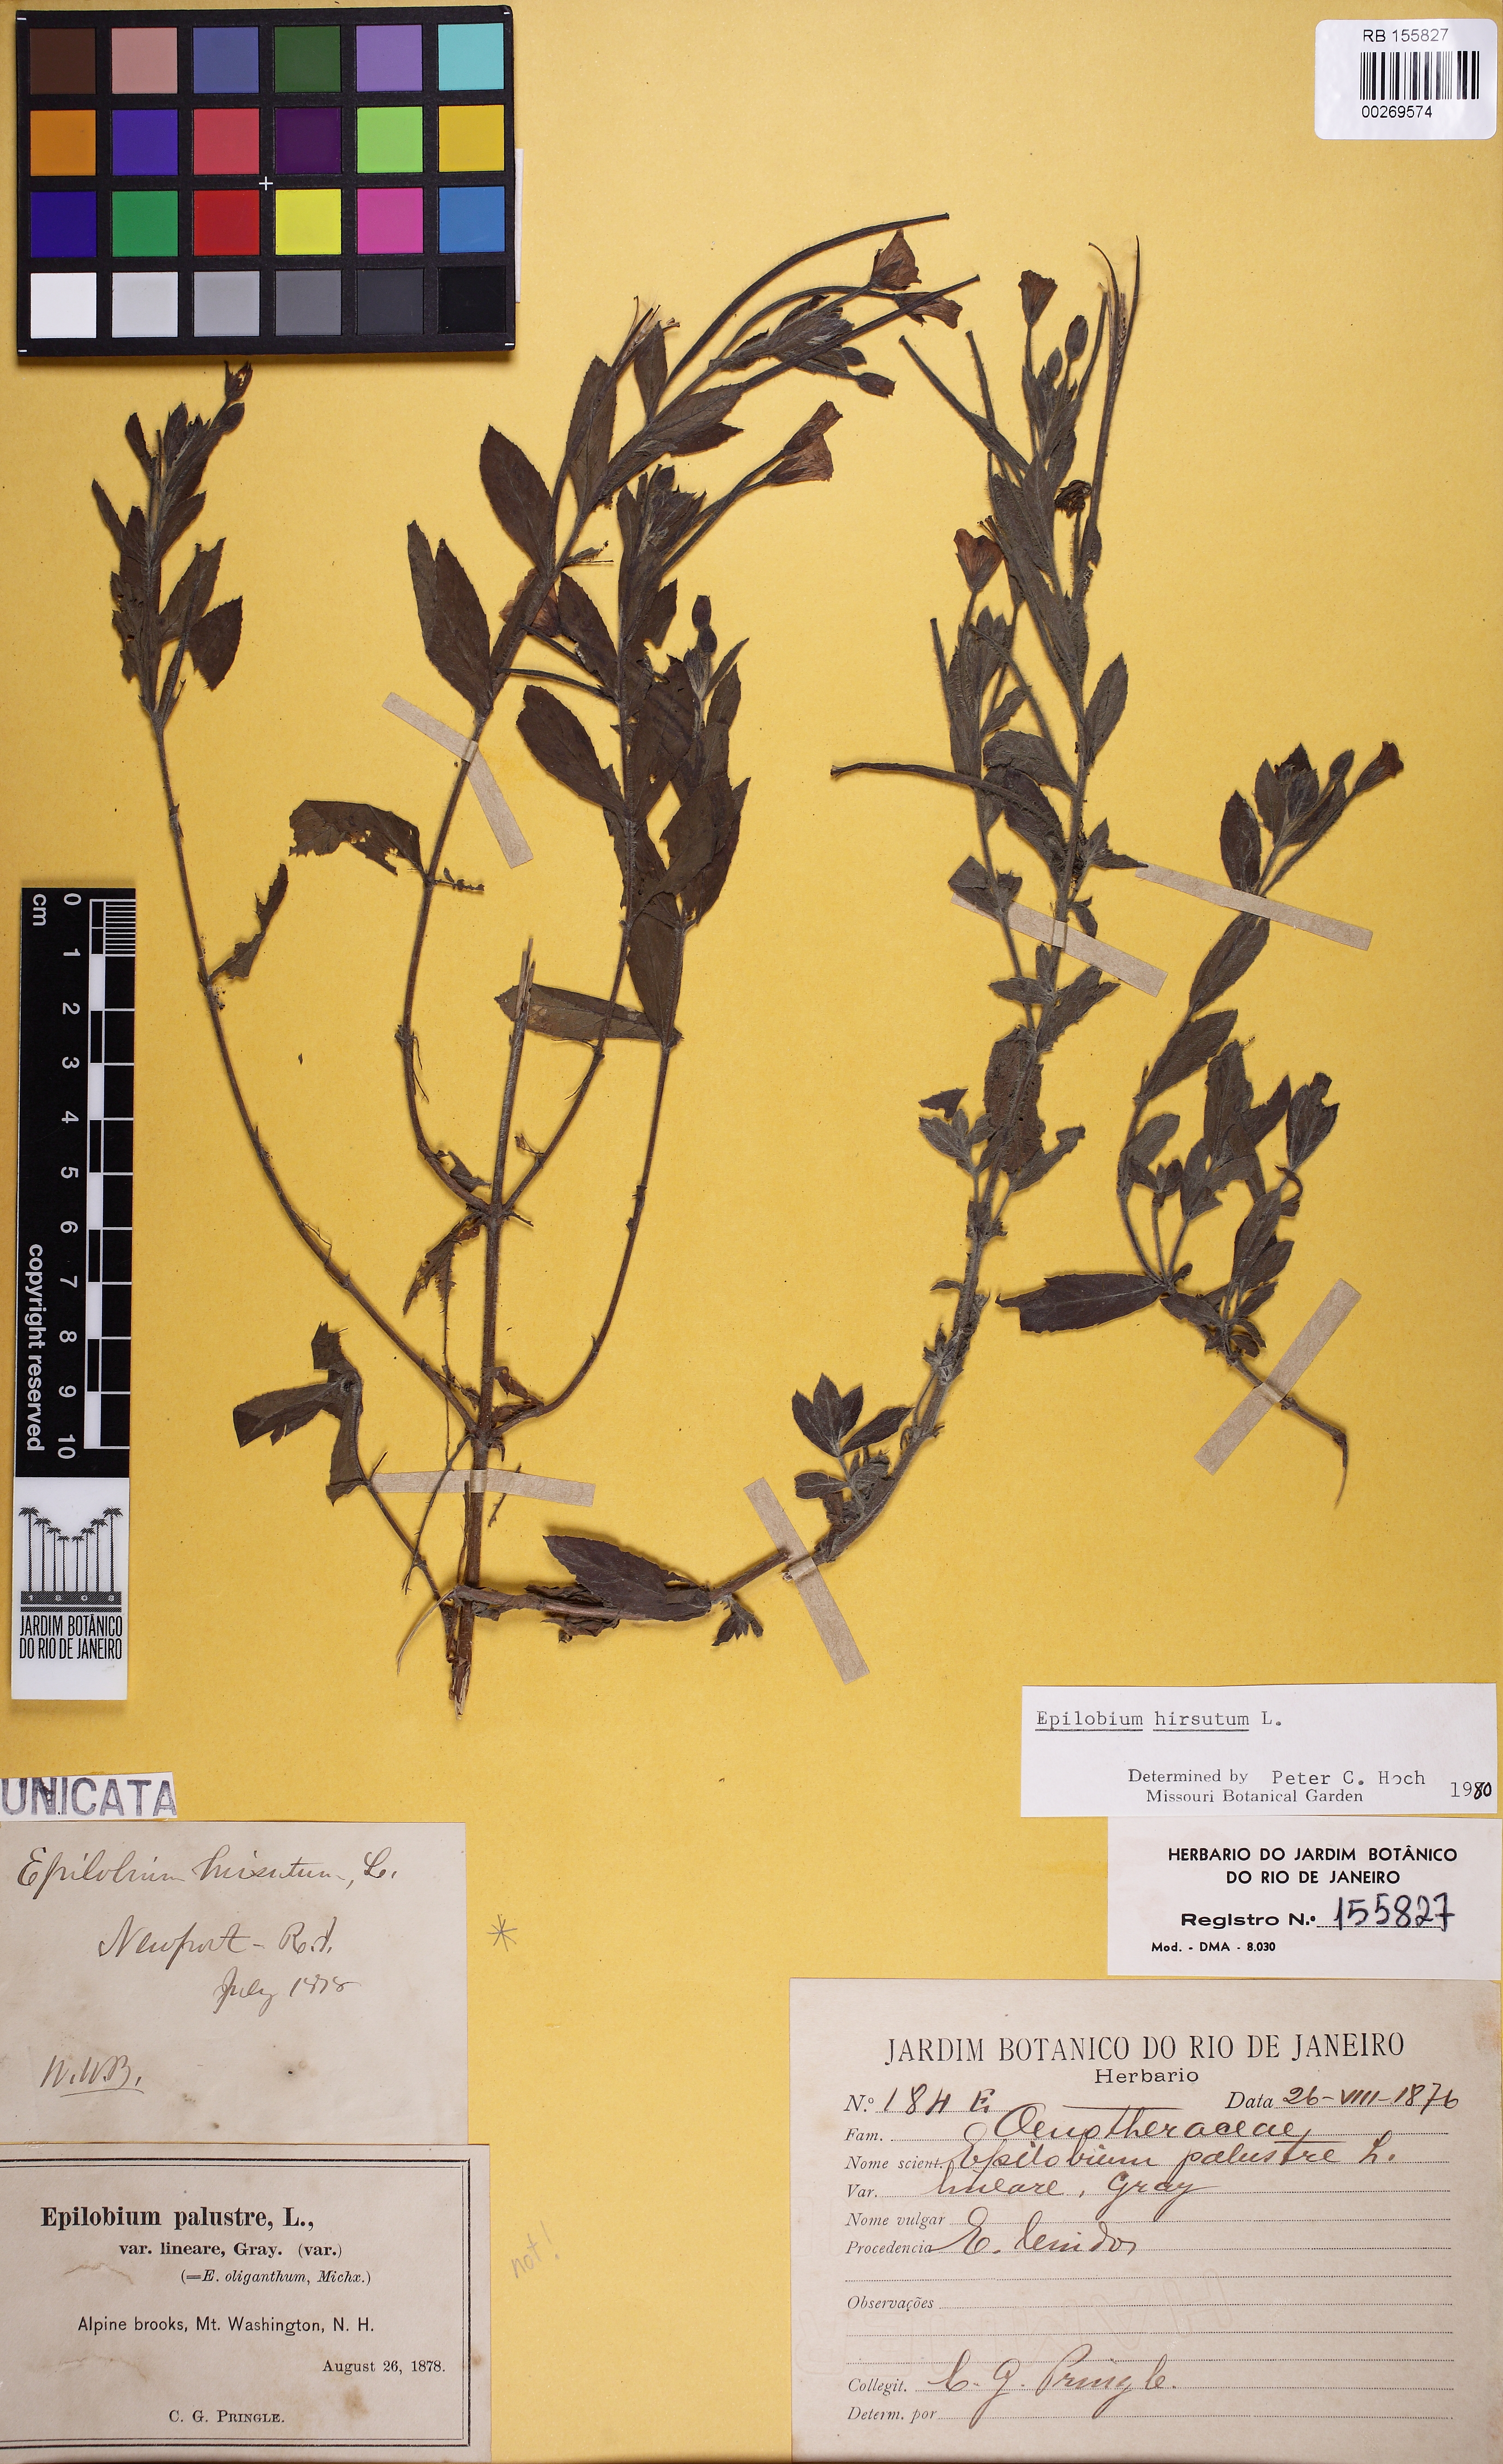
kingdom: Plantae
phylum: Tracheophyta
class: Magnoliopsida
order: Myrtales
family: Onagraceae
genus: Epilobium
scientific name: Epilobium hirsutum
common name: Great willowherb
